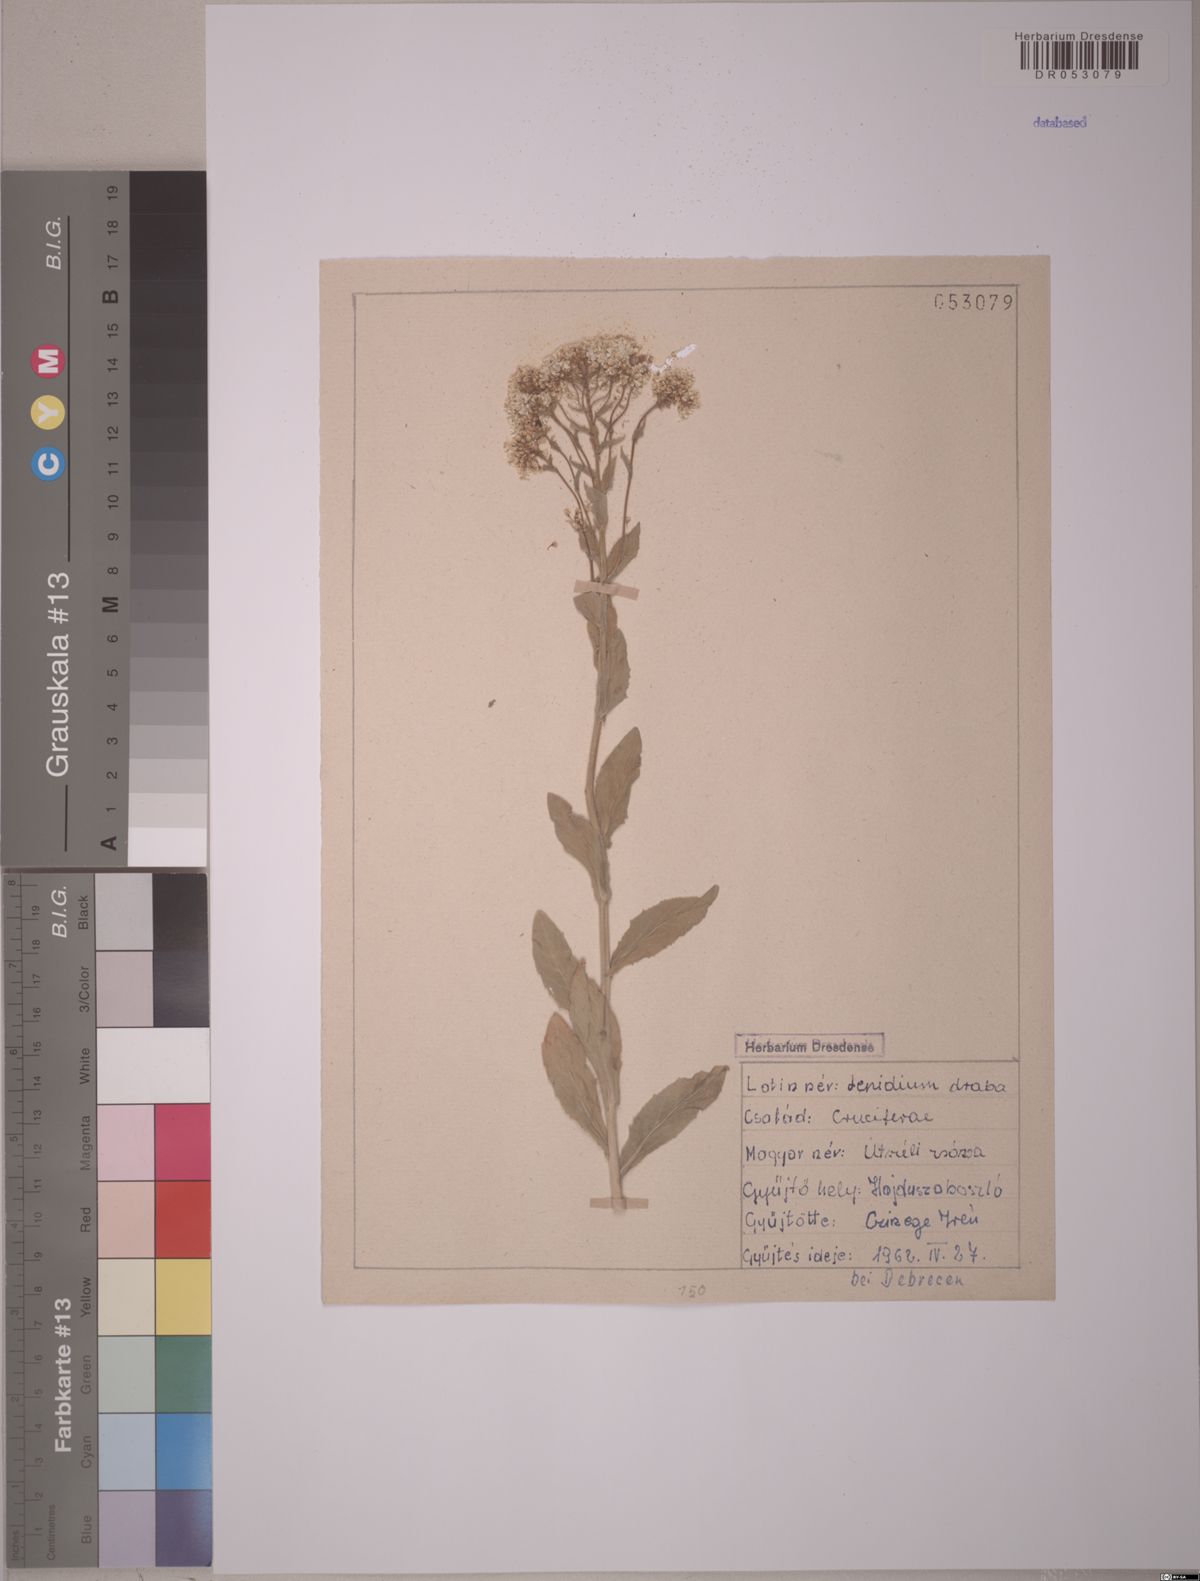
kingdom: Plantae
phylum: Tracheophyta
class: Magnoliopsida
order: Brassicales
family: Brassicaceae
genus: Lepidium
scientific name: Lepidium draba
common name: Hoary cress
